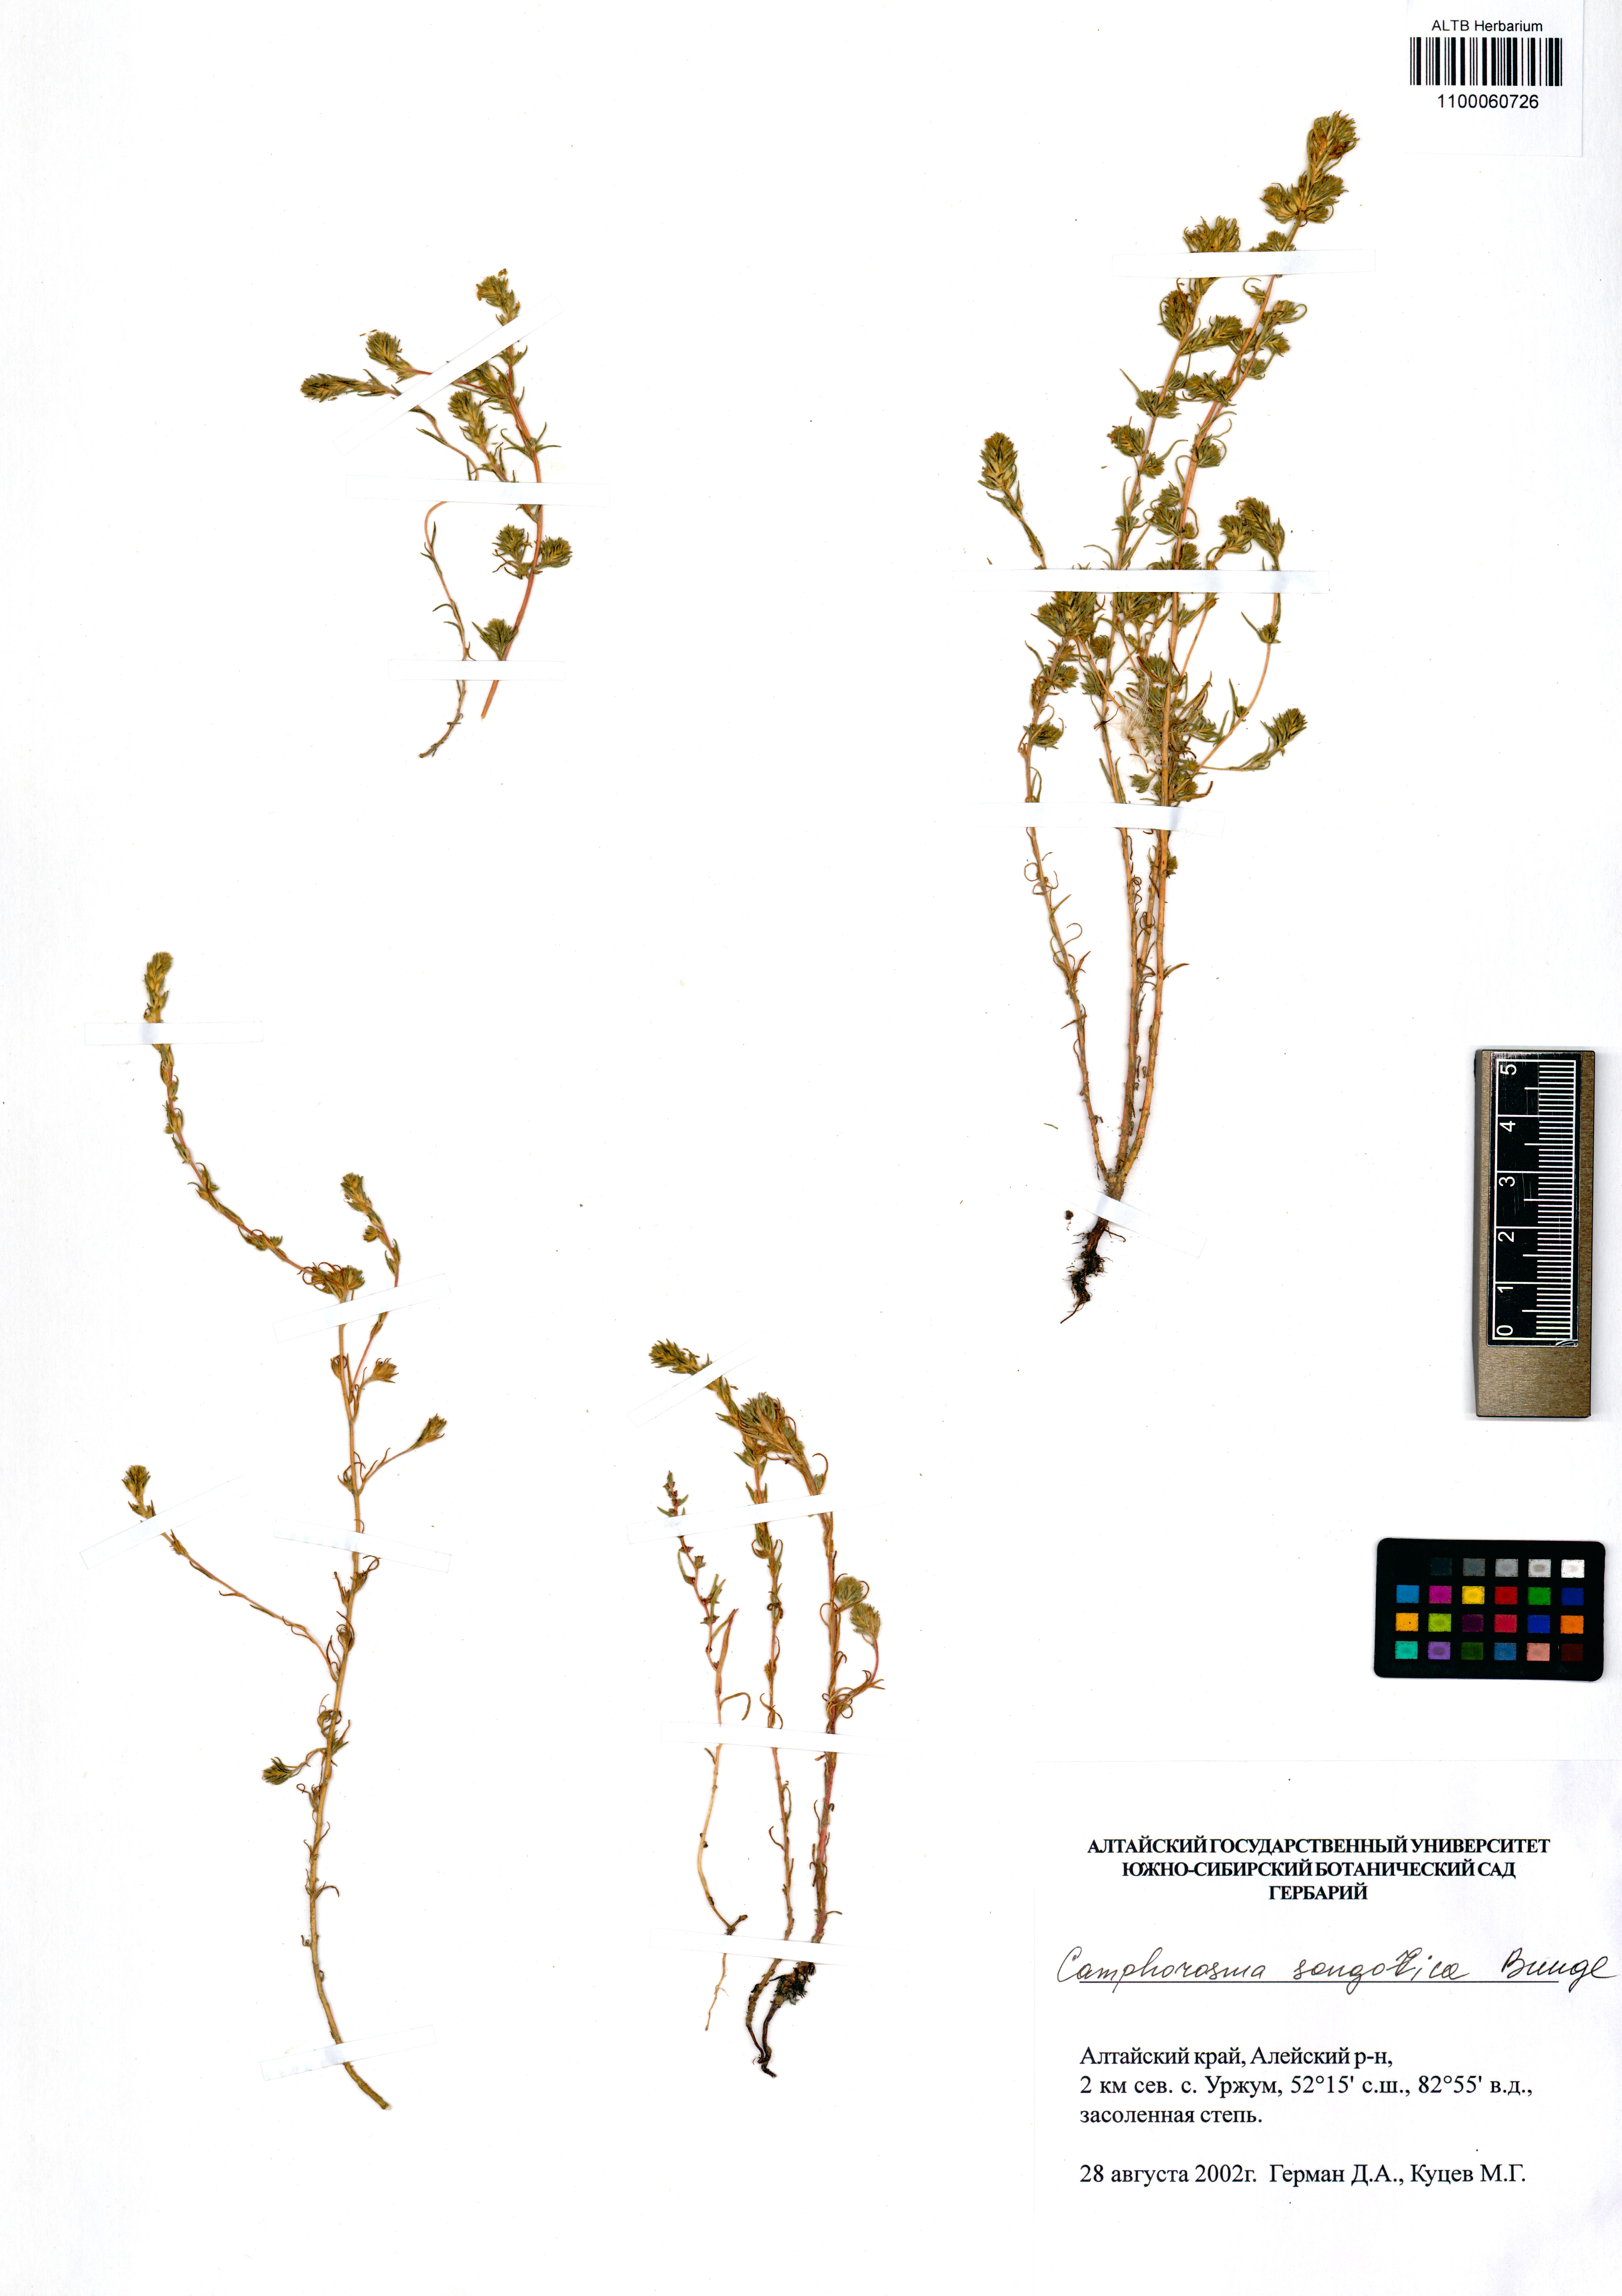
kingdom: Plantae
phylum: Tracheophyta
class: Magnoliopsida
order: Caryophyllales
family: Amaranthaceae
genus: Camphorosma
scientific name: Camphorosma songorica
